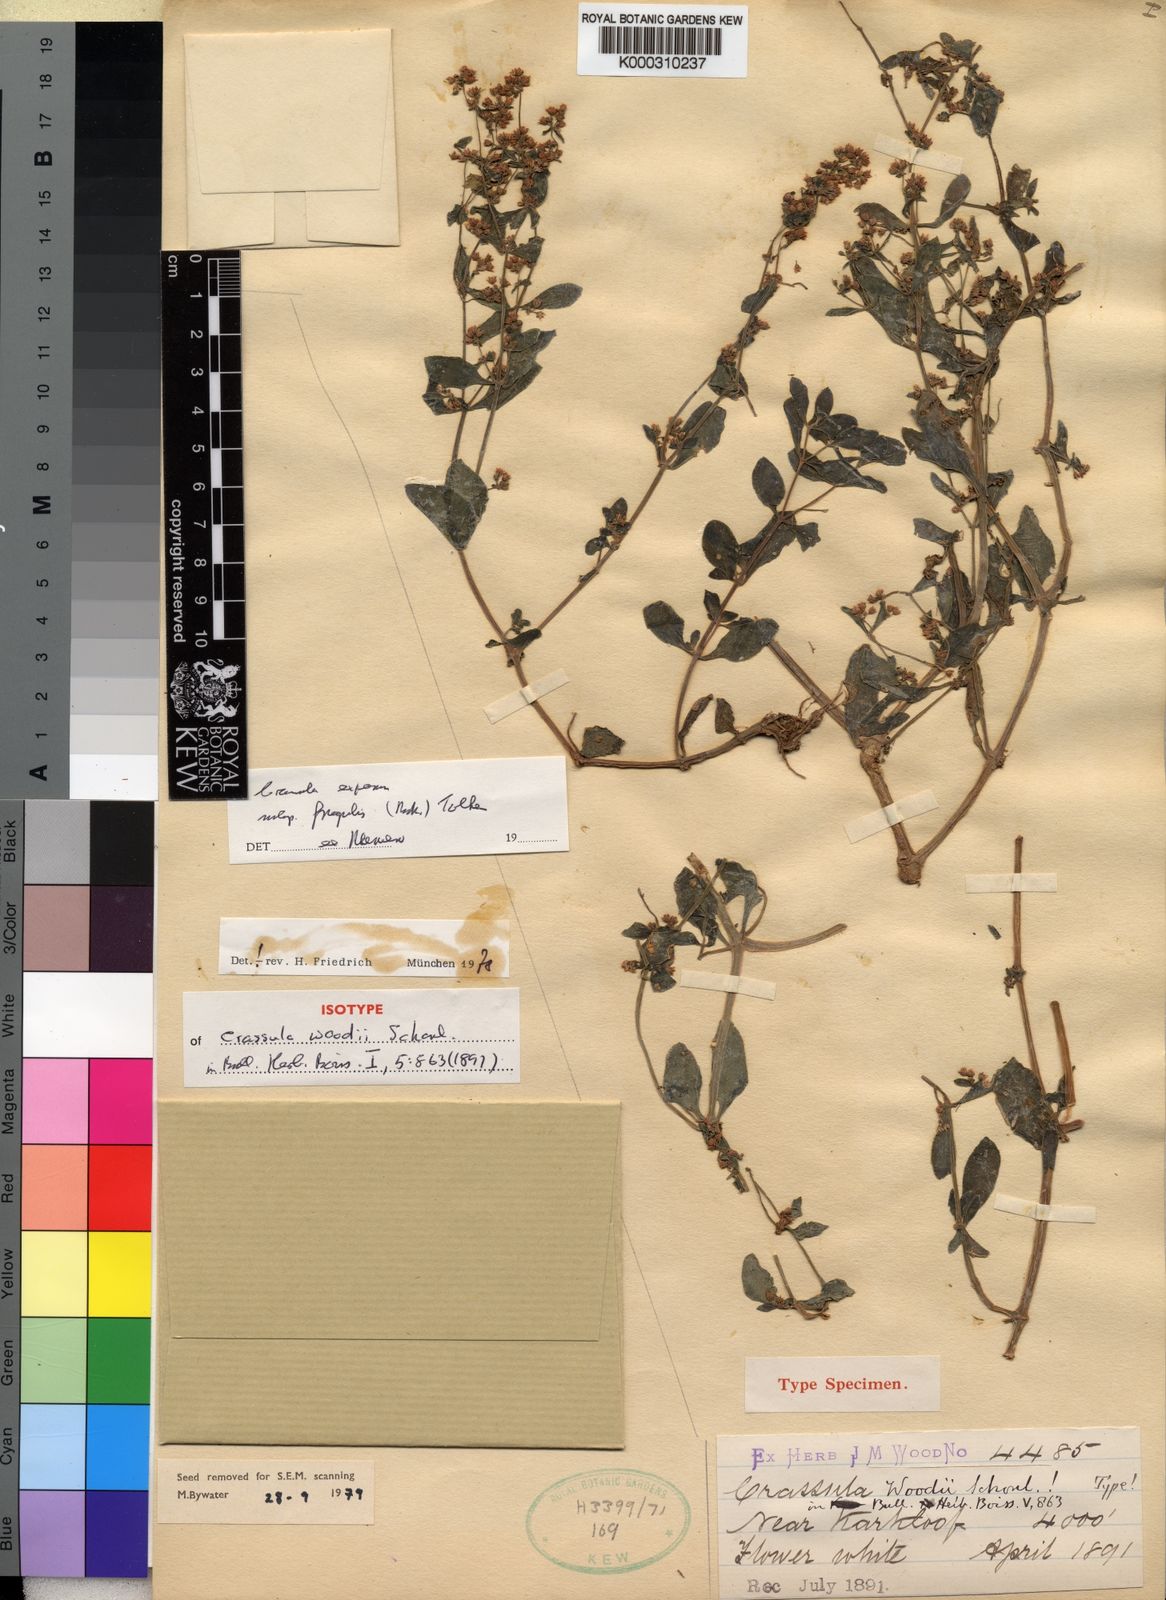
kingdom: Plantae
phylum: Tracheophyta
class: Magnoliopsida
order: Saxifragales
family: Crassulaceae
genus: Crassula
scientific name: Crassula expansa
